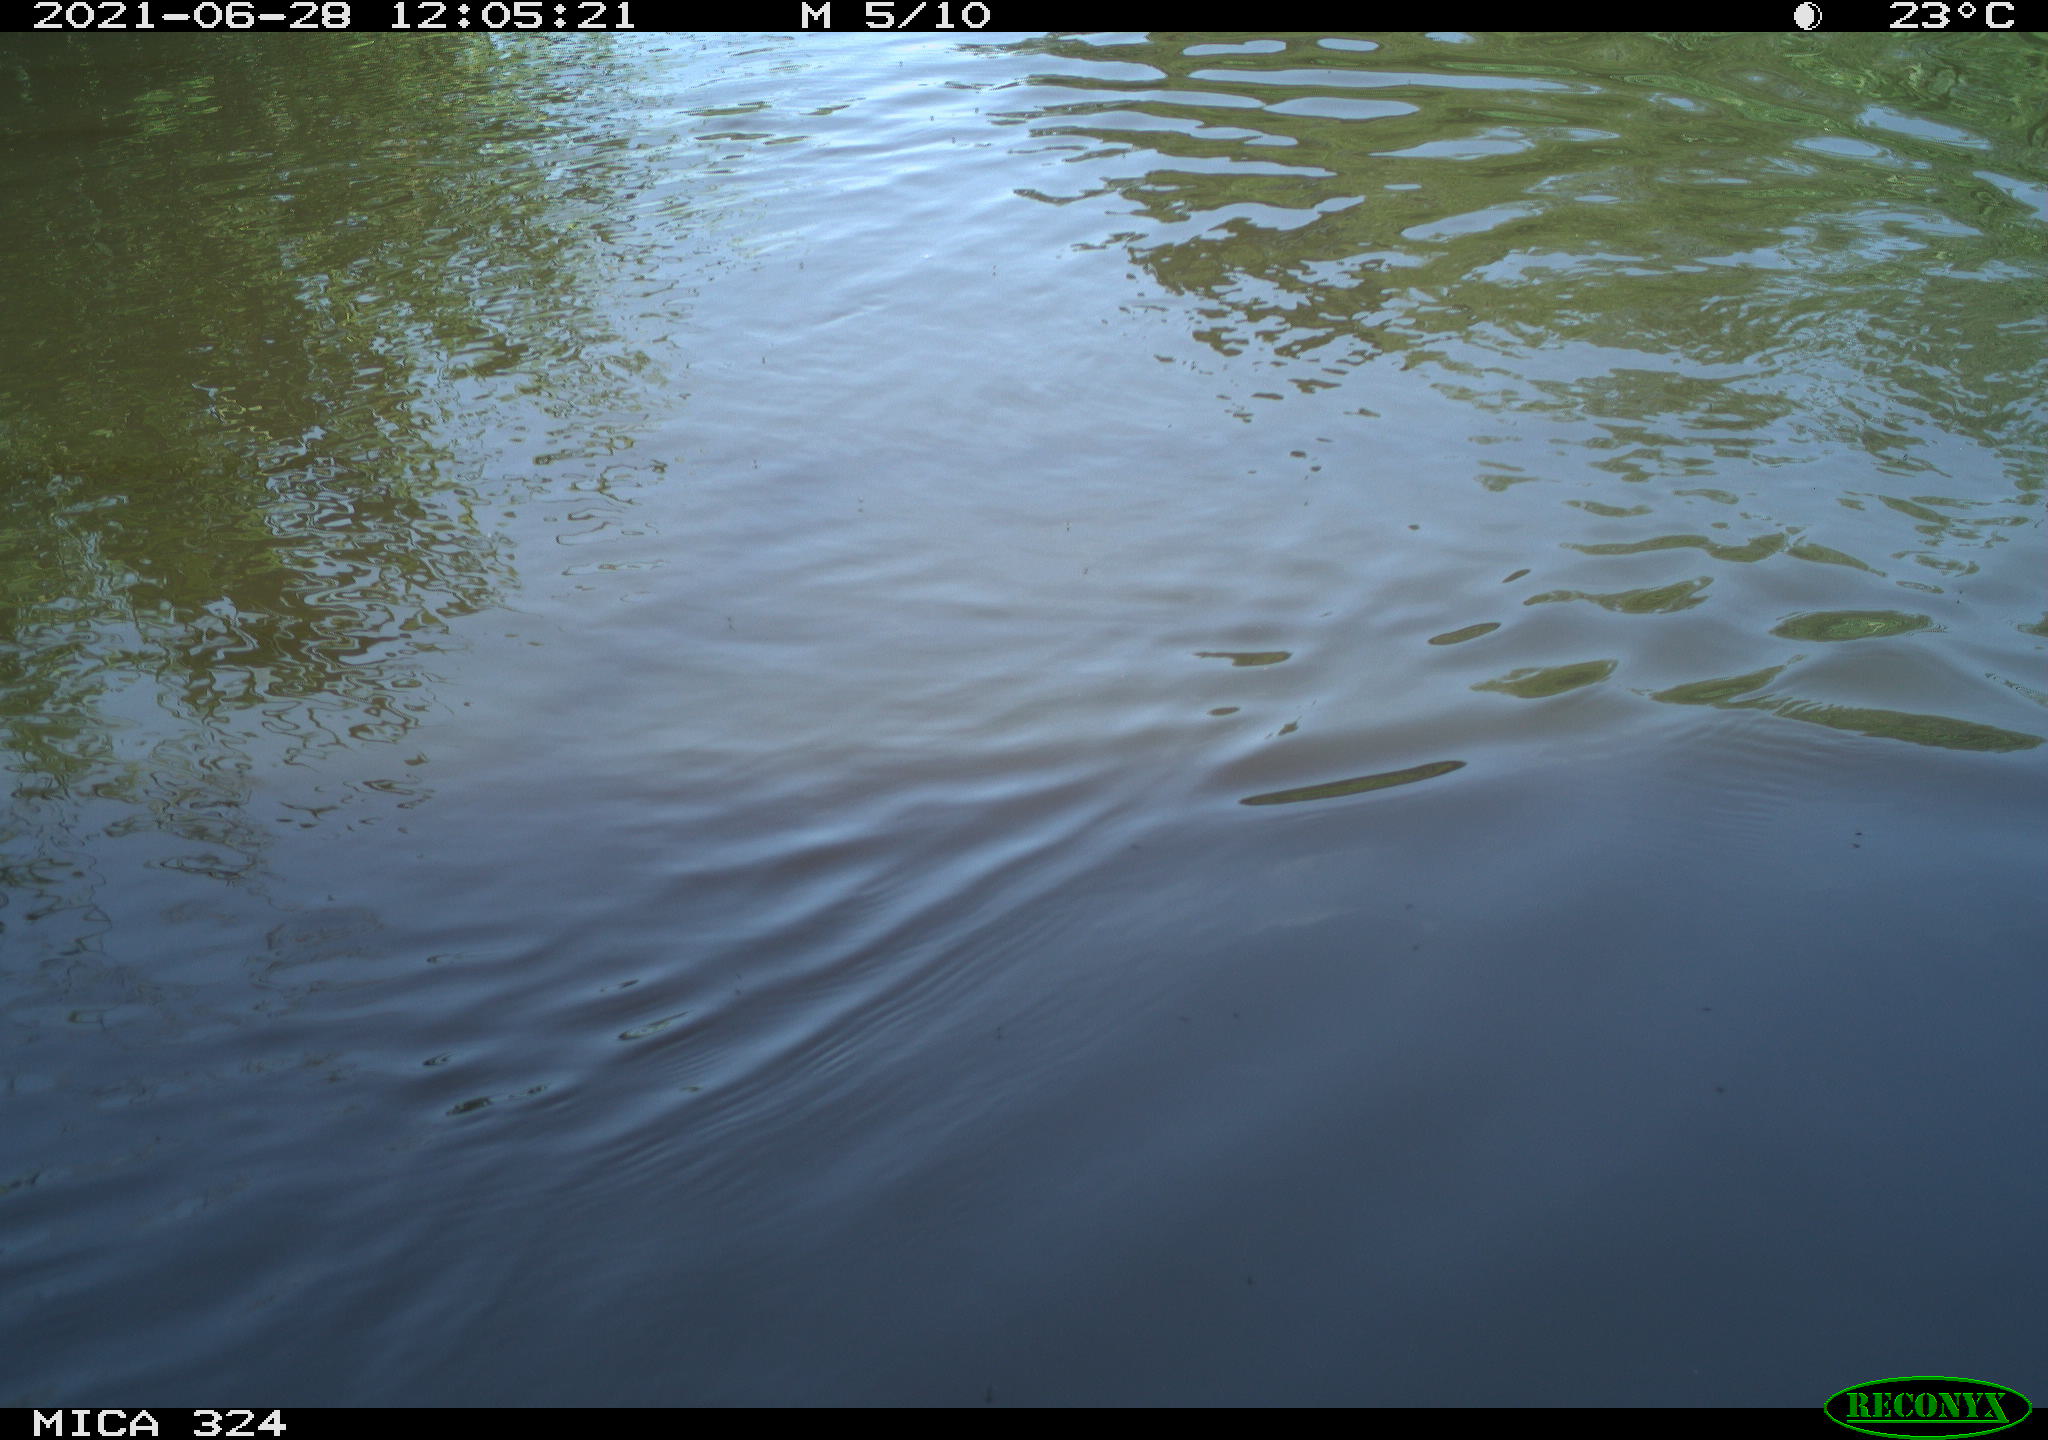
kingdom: Animalia
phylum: Chordata
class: Aves
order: Gruiformes
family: Rallidae
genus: Gallinula
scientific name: Gallinula chloropus
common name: Common moorhen
